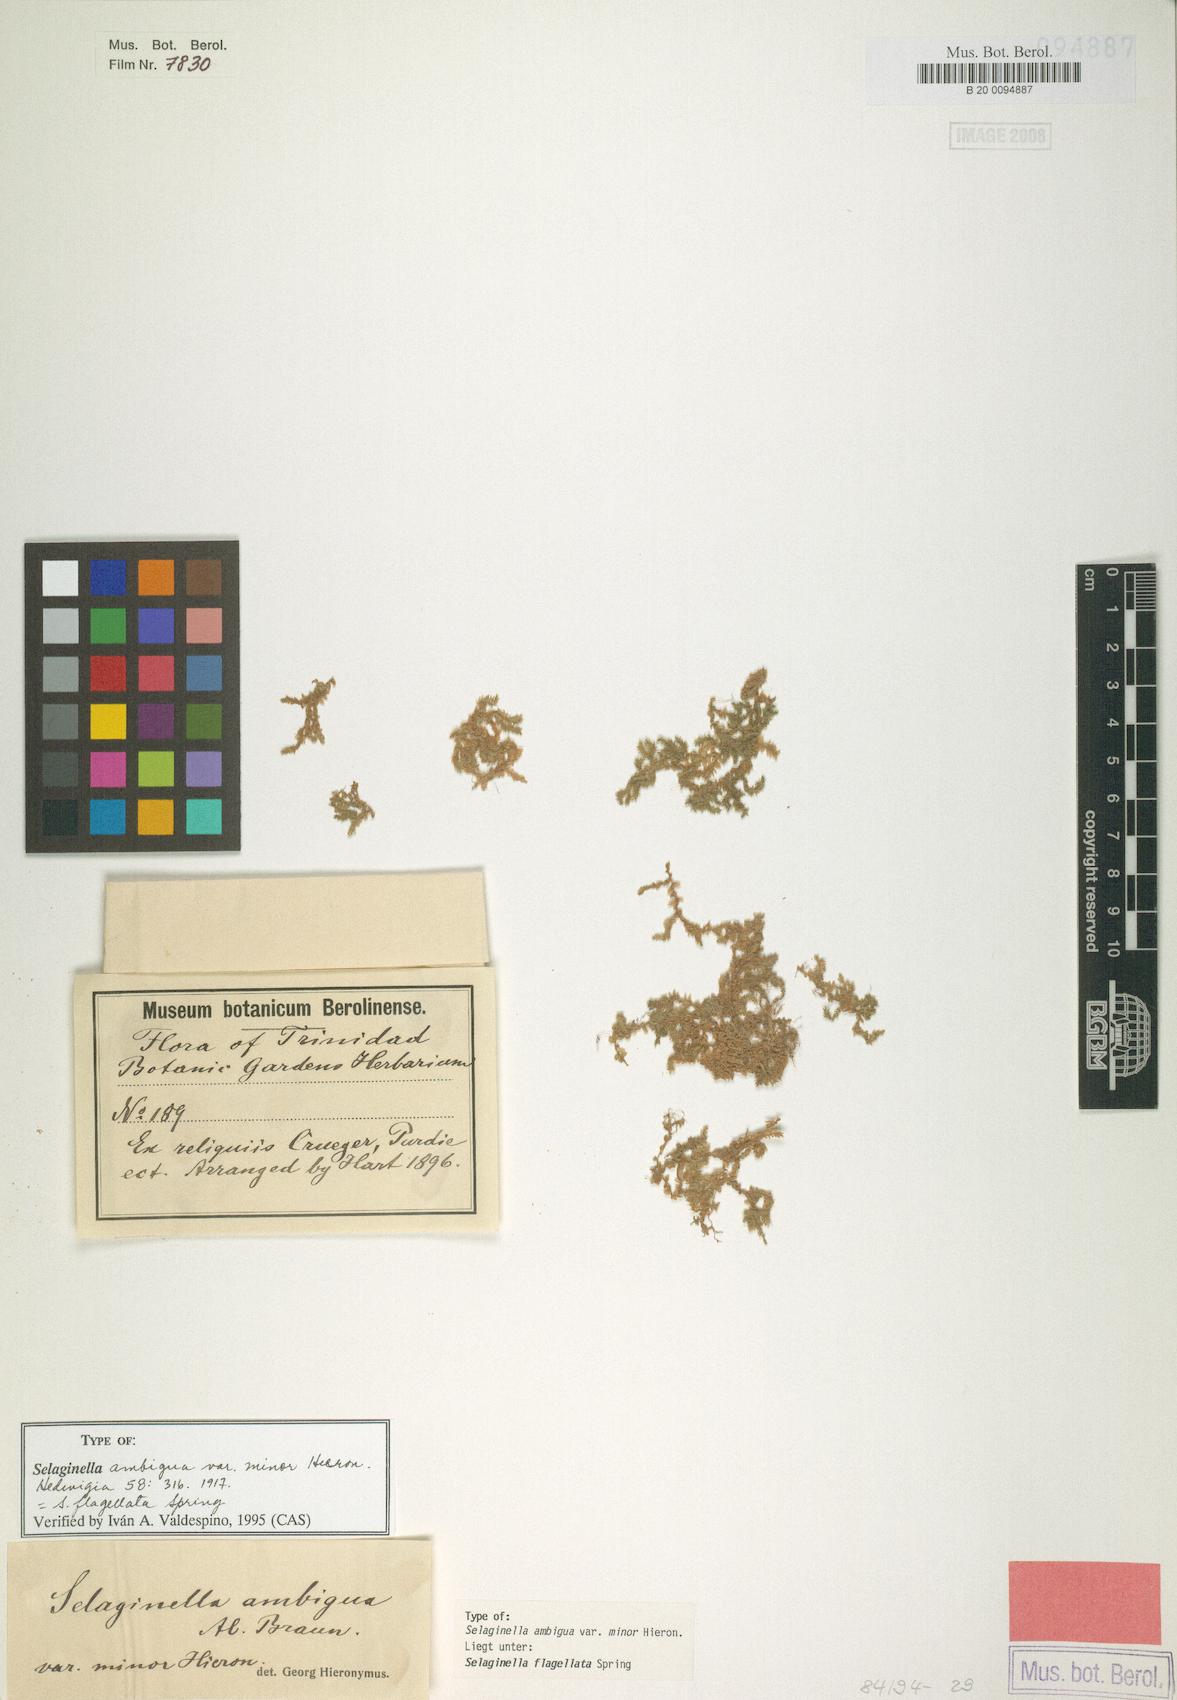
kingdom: Plantae
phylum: Tracheophyta
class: Lycopodiopsida
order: Selaginellales
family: Selaginellaceae
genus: Selaginella
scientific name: Selaginella flagellata
